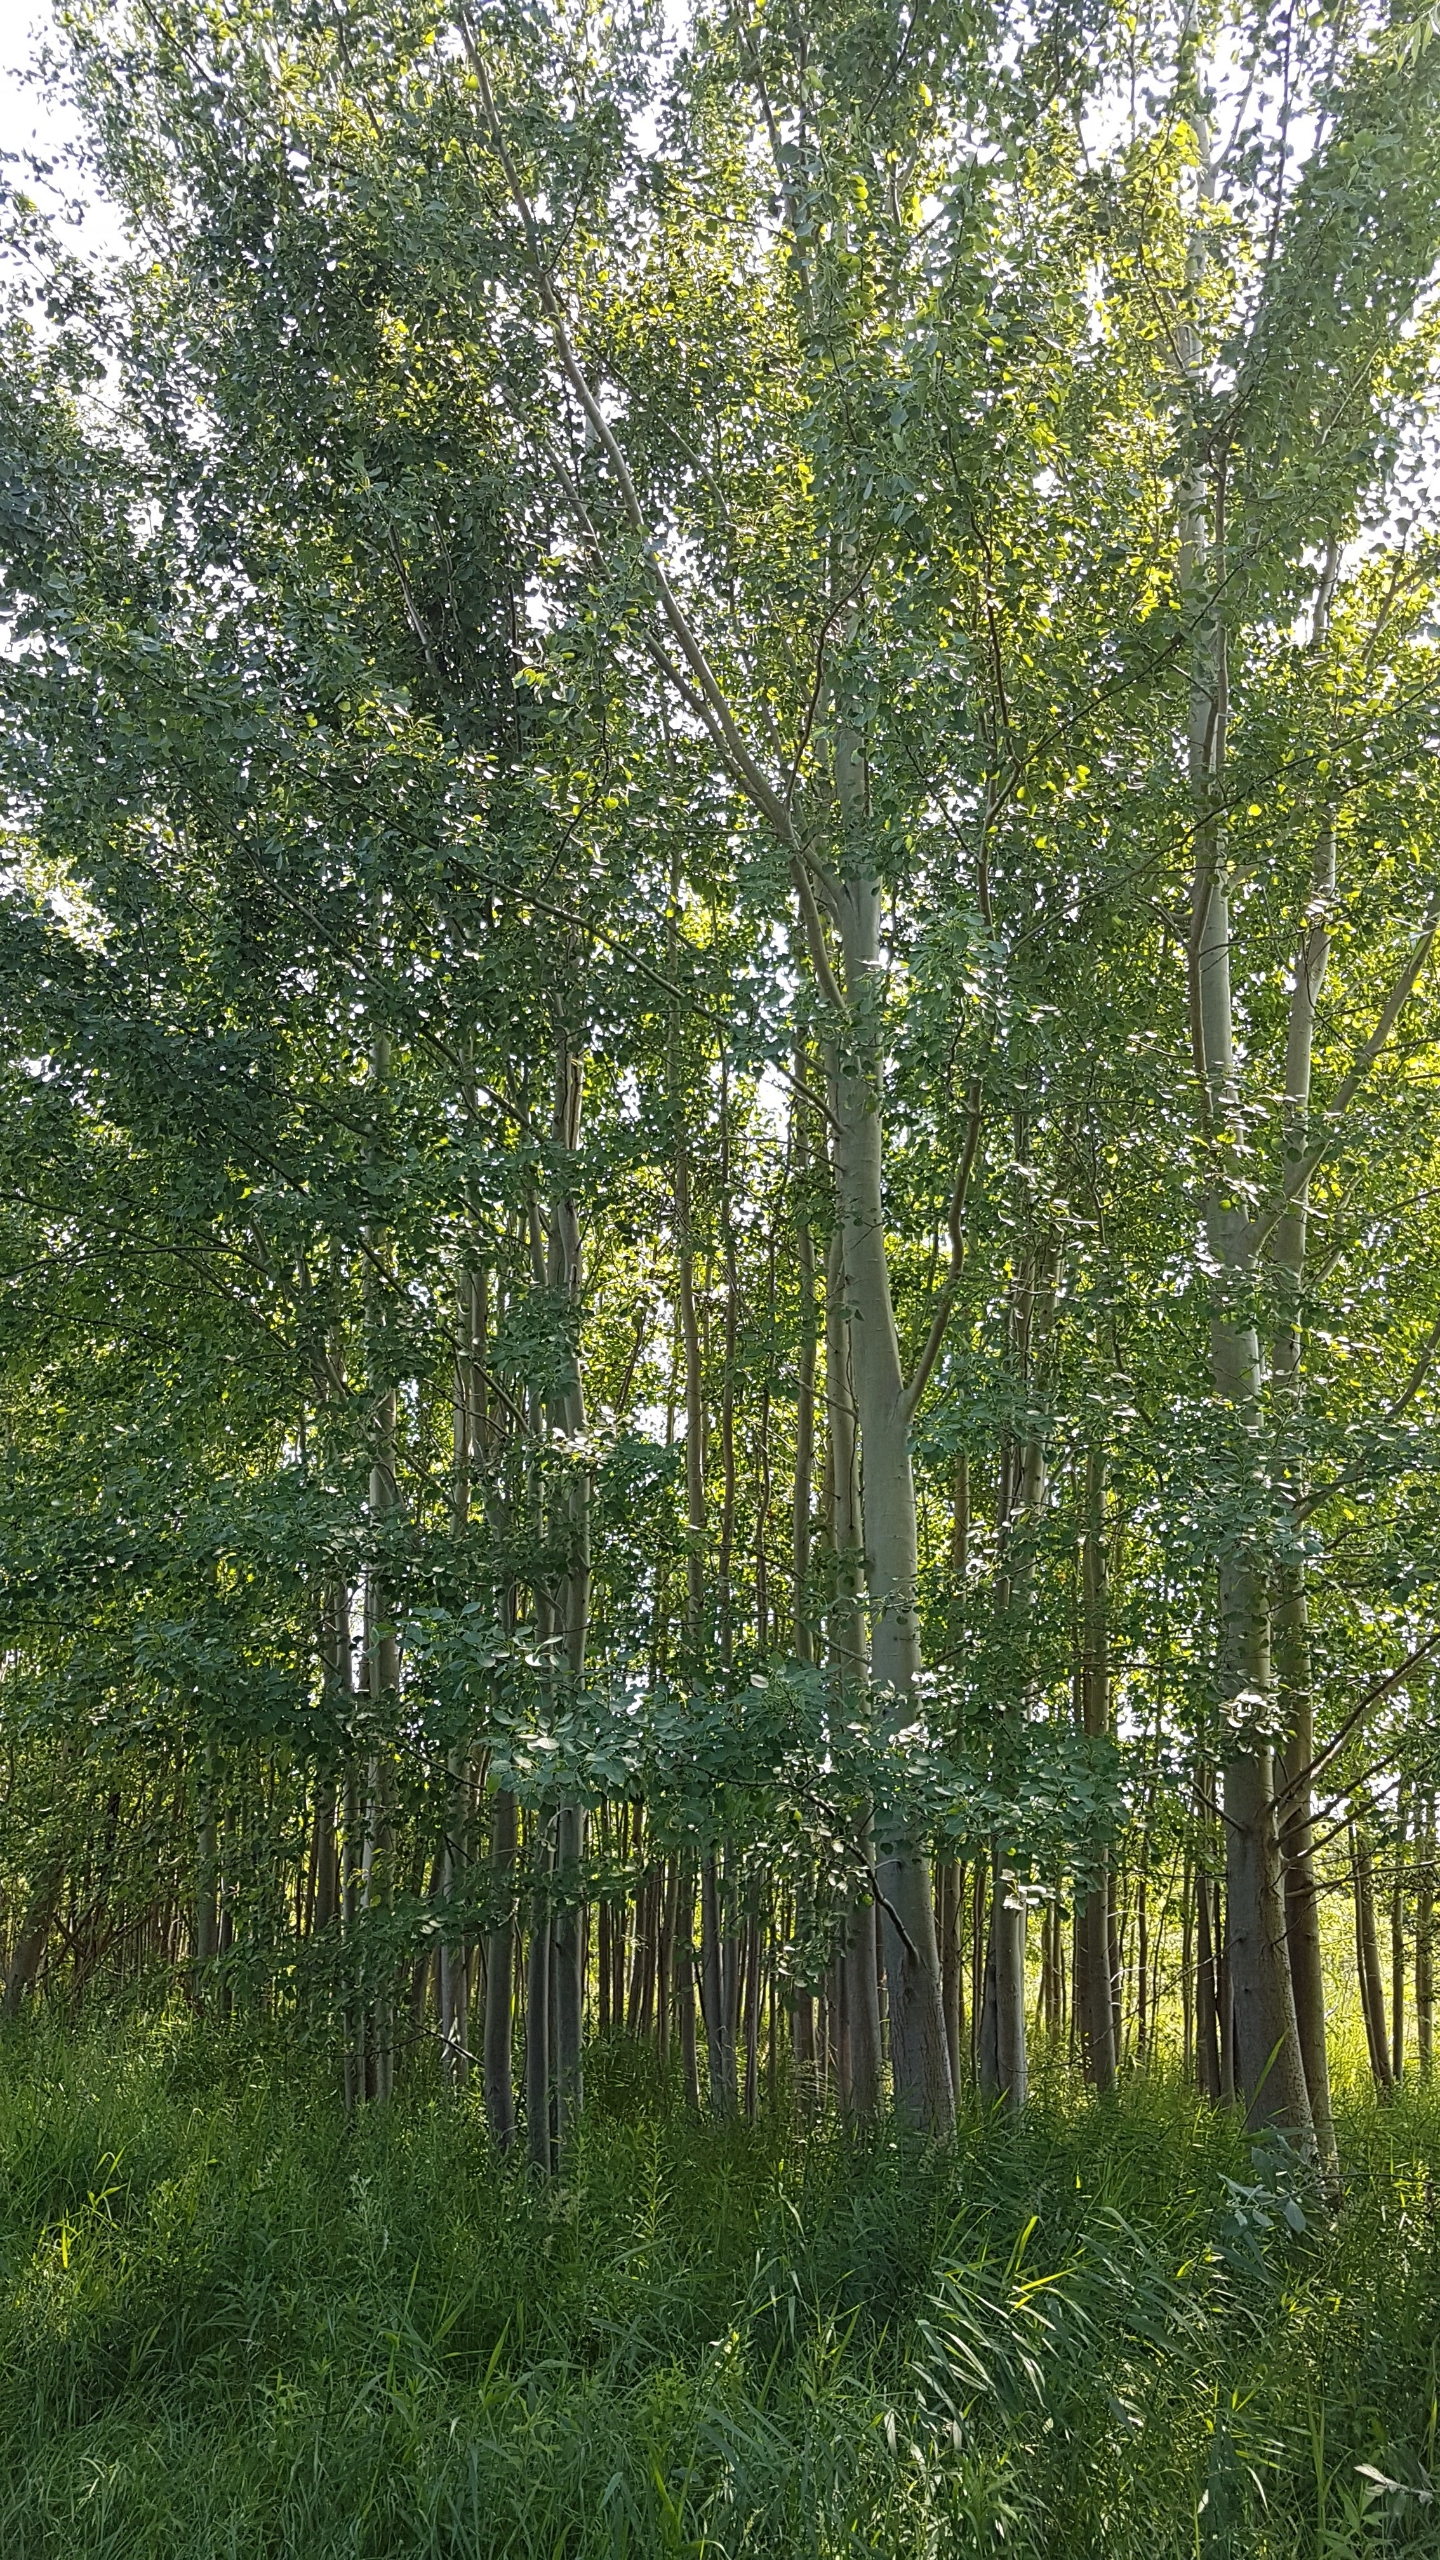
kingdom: Plantae
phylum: Tracheophyta
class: Magnoliopsida
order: Malpighiales
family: Salicaceae
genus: Populus
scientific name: Populus tremula
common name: Bævreasp
